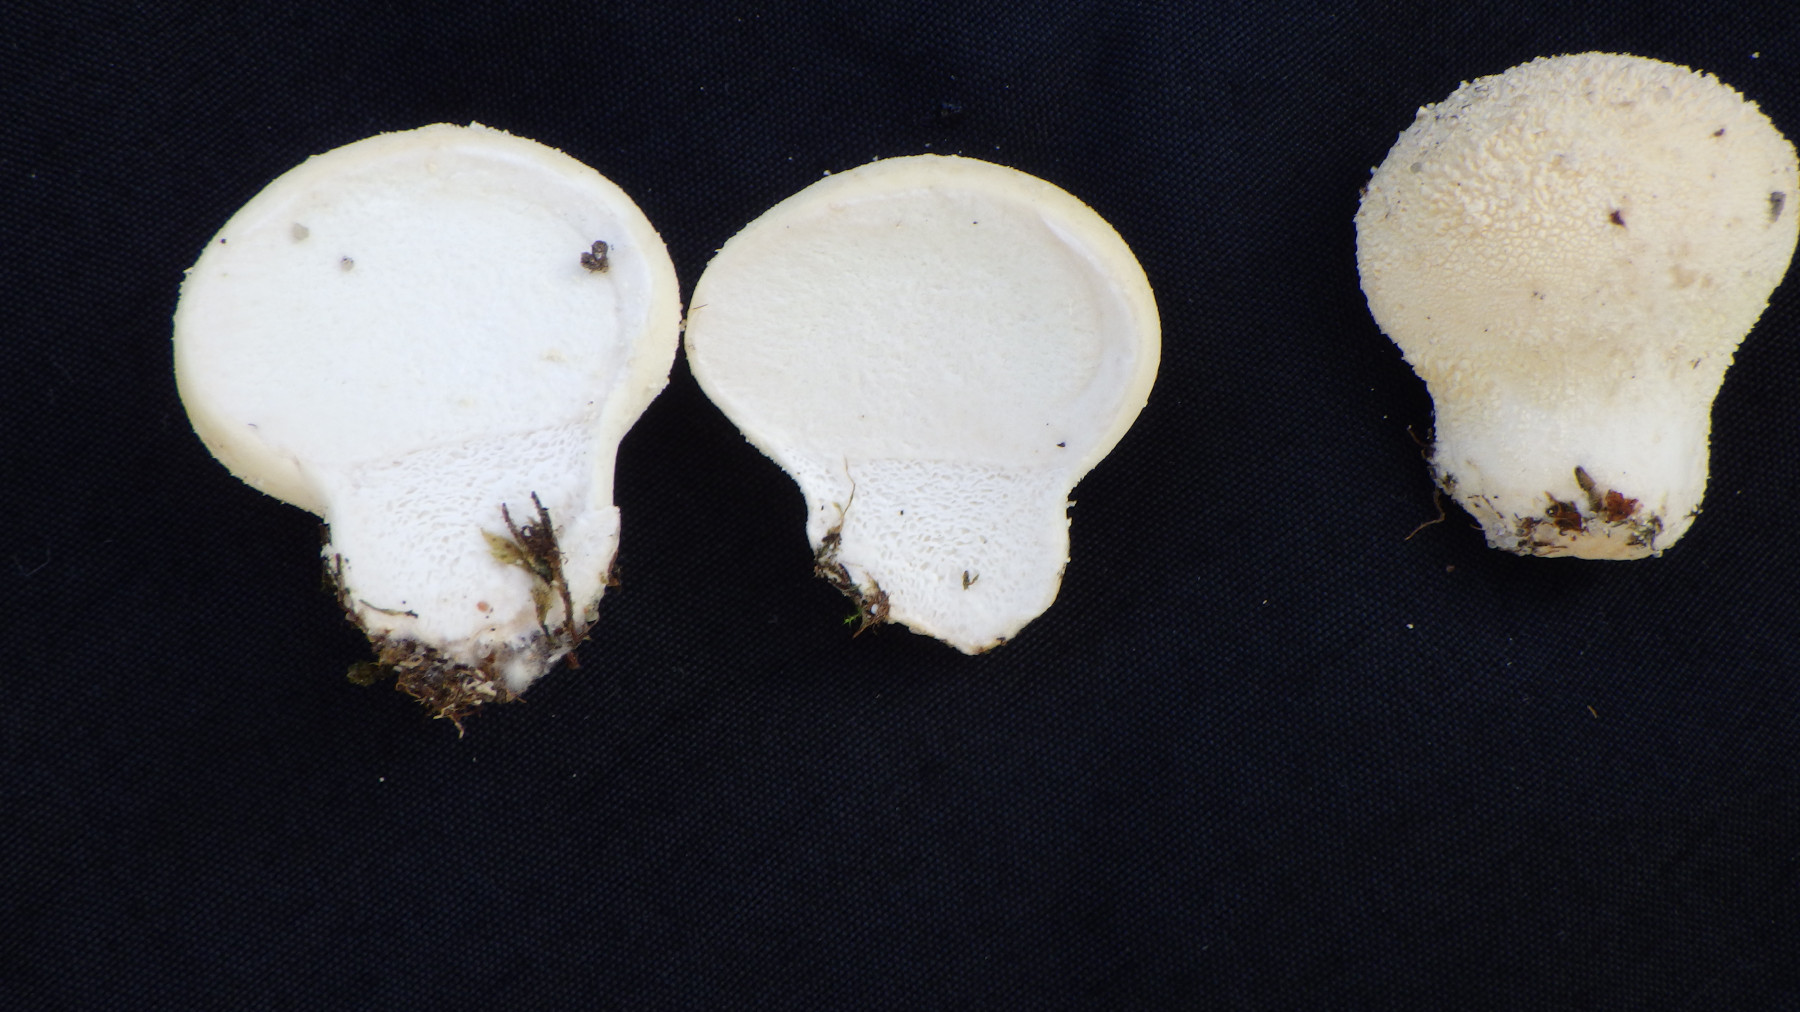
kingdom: Fungi
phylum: Basidiomycota
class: Agaricomycetes
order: Agaricales
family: Lycoperdaceae
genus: Lycoperdon
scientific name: Lycoperdon pratense
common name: flad støvbold
